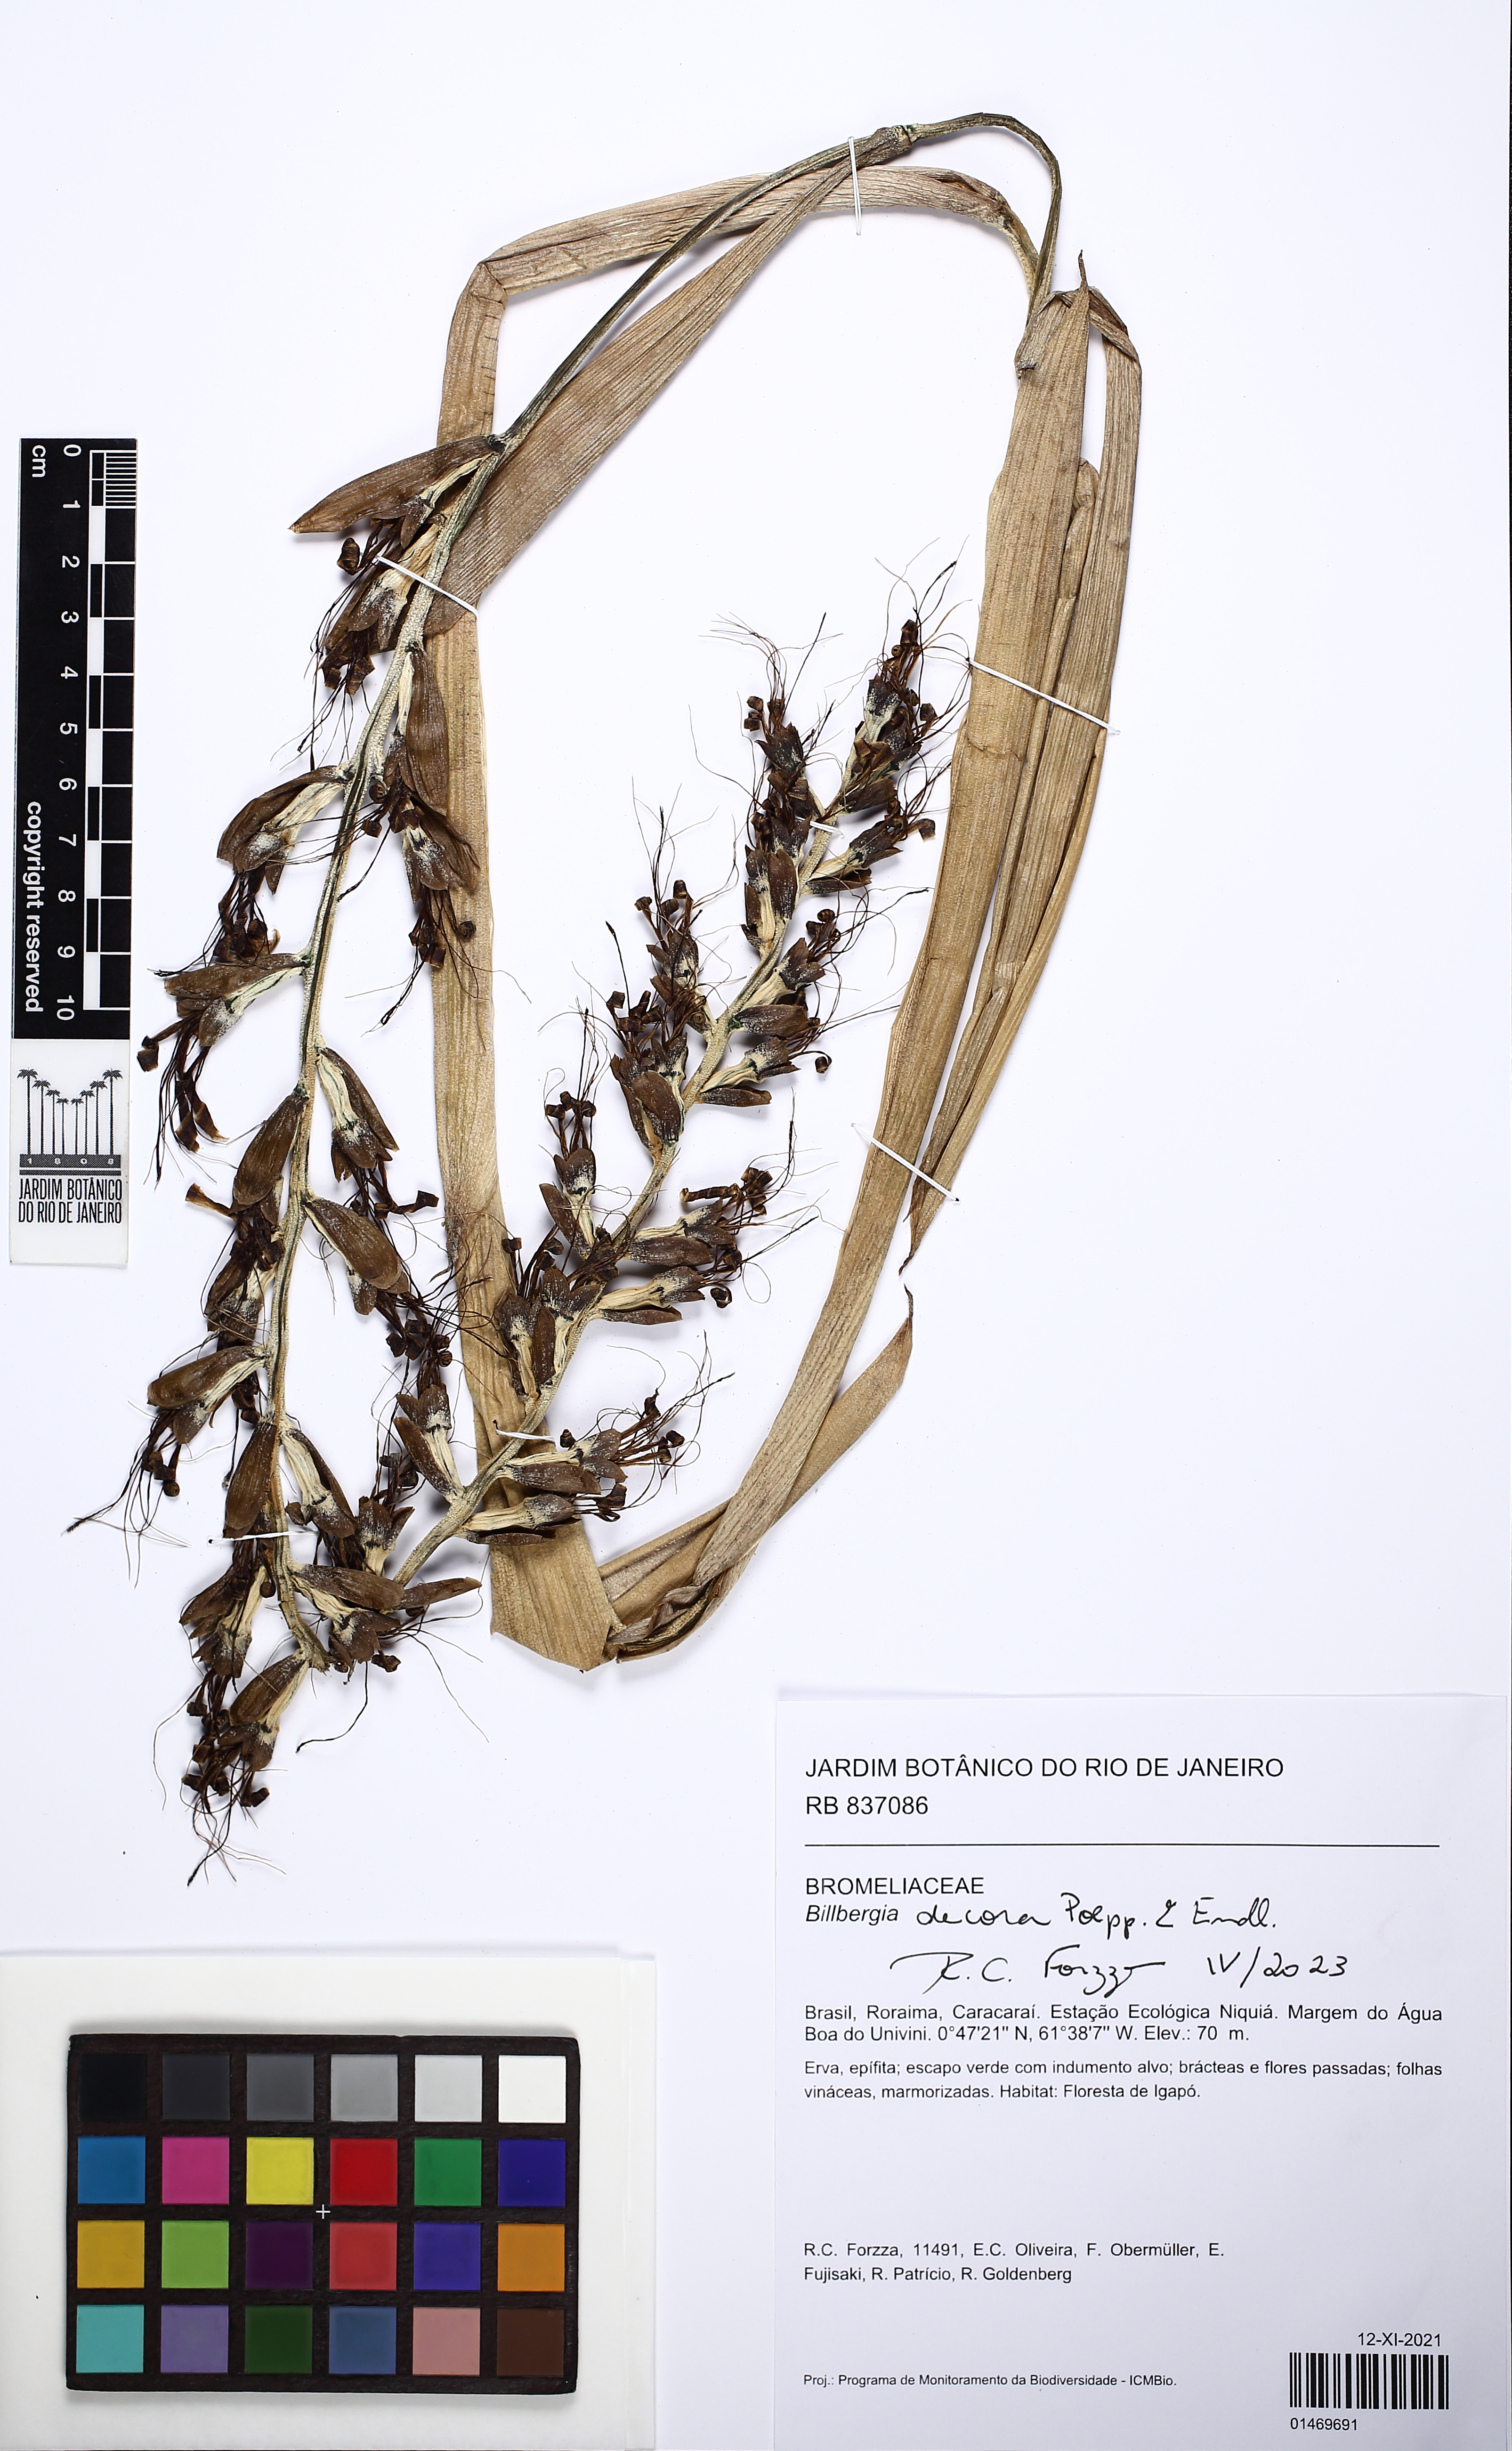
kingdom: Plantae
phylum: Tracheophyta
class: Liliopsida
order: Poales
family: Bromeliaceae
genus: Billbergia
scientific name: Billbergia decora
